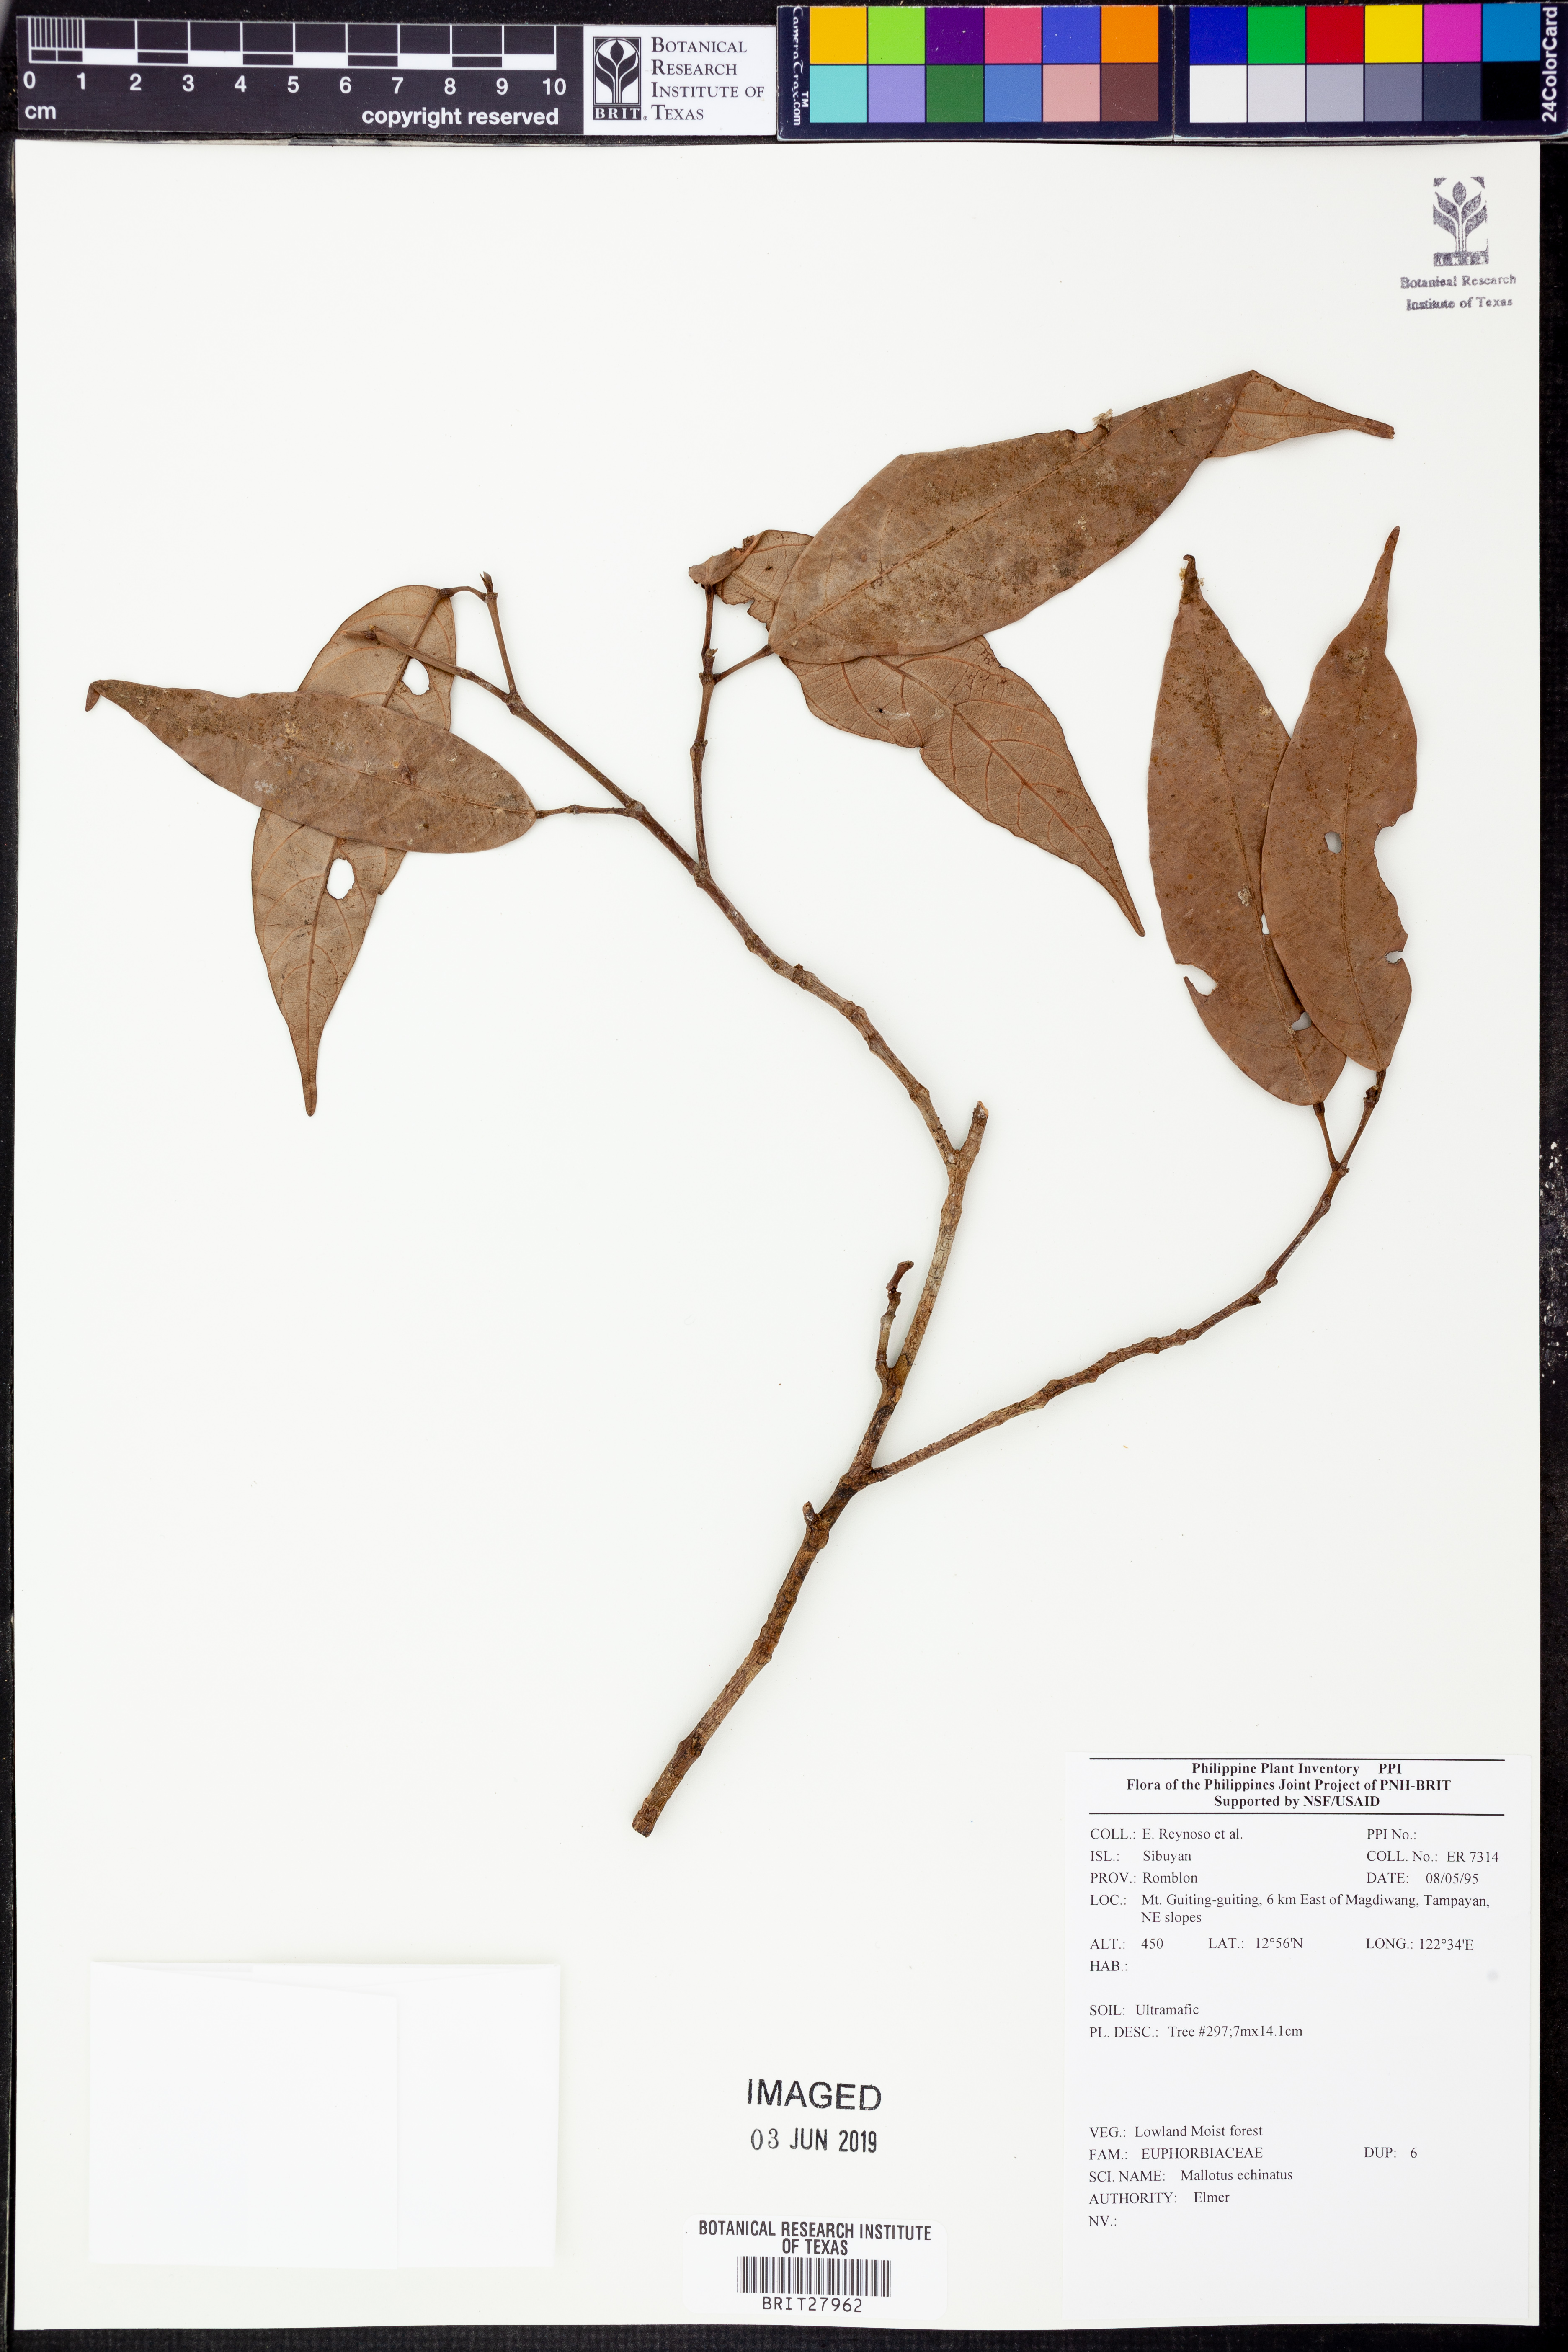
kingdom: Plantae
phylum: Tracheophyta
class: Magnoliopsida
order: Malpighiales
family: Euphorbiaceae
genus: Hancea
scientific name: Hancea penangensis
